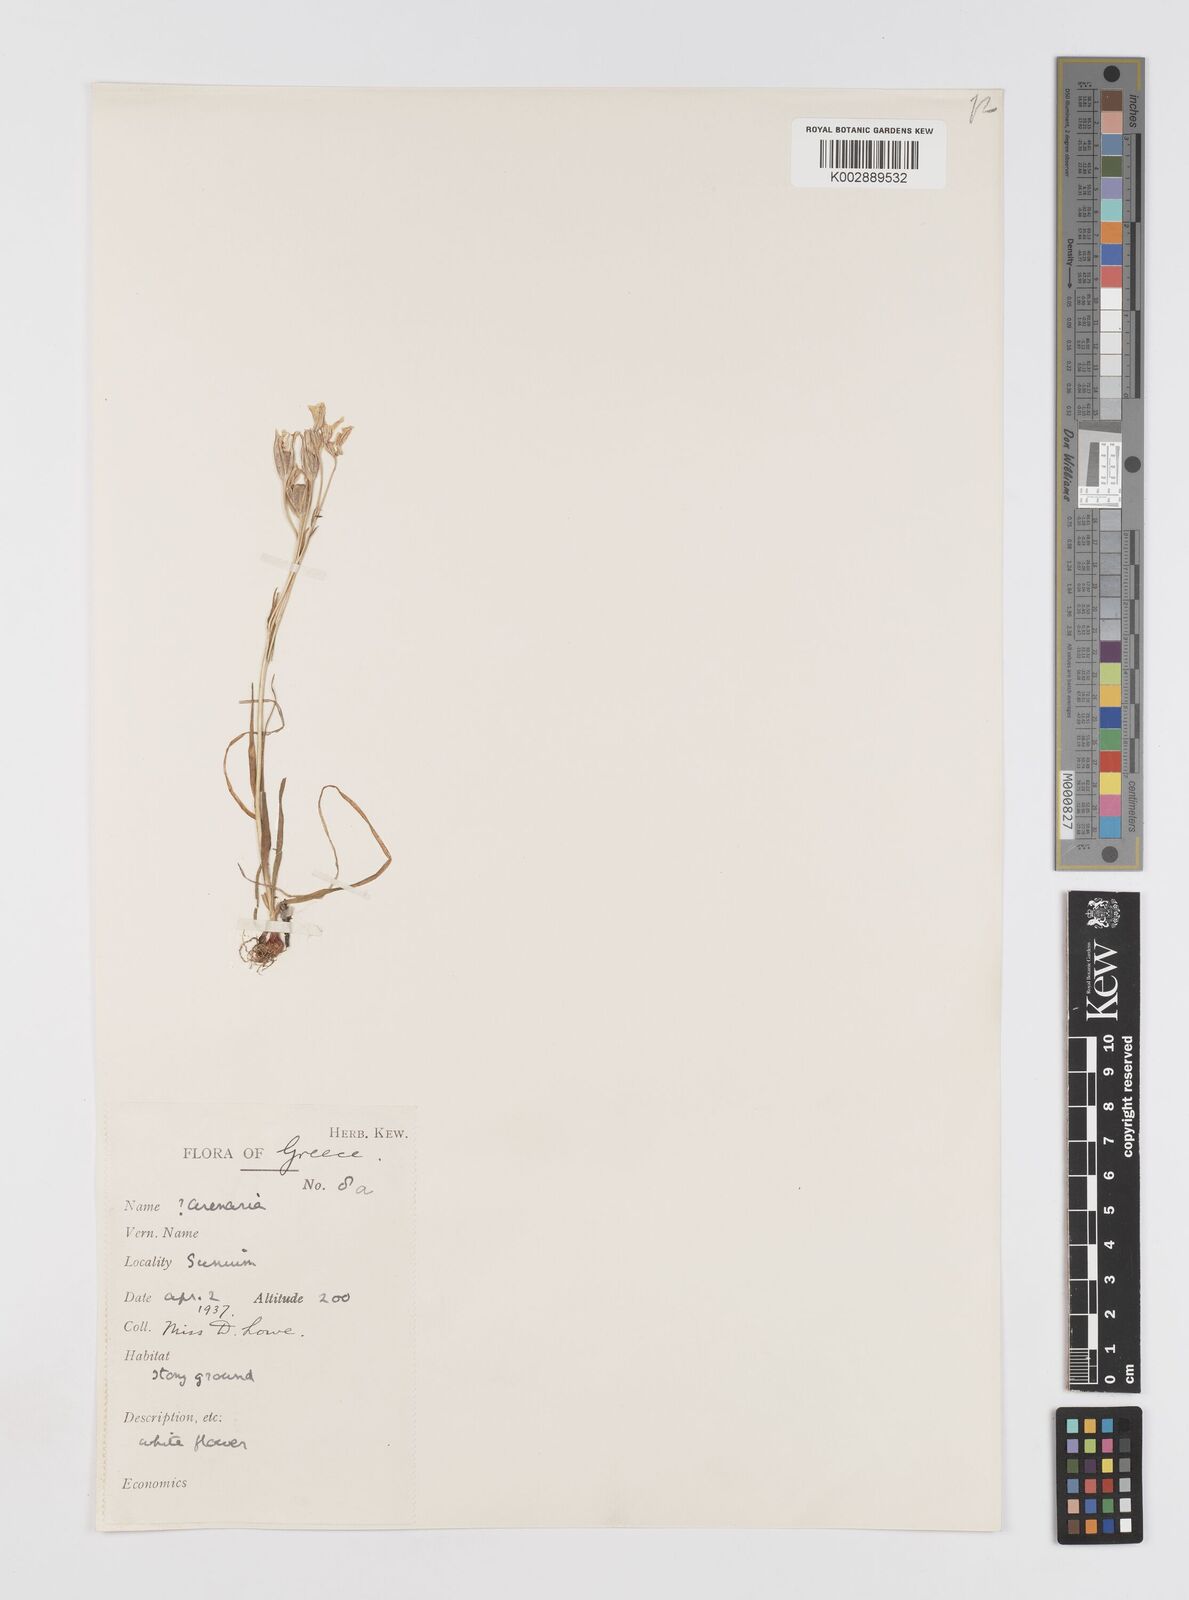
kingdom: Plantae
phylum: Tracheophyta
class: Liliopsida
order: Liliales
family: Liliaceae
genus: Gagea
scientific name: Gagea graeca
